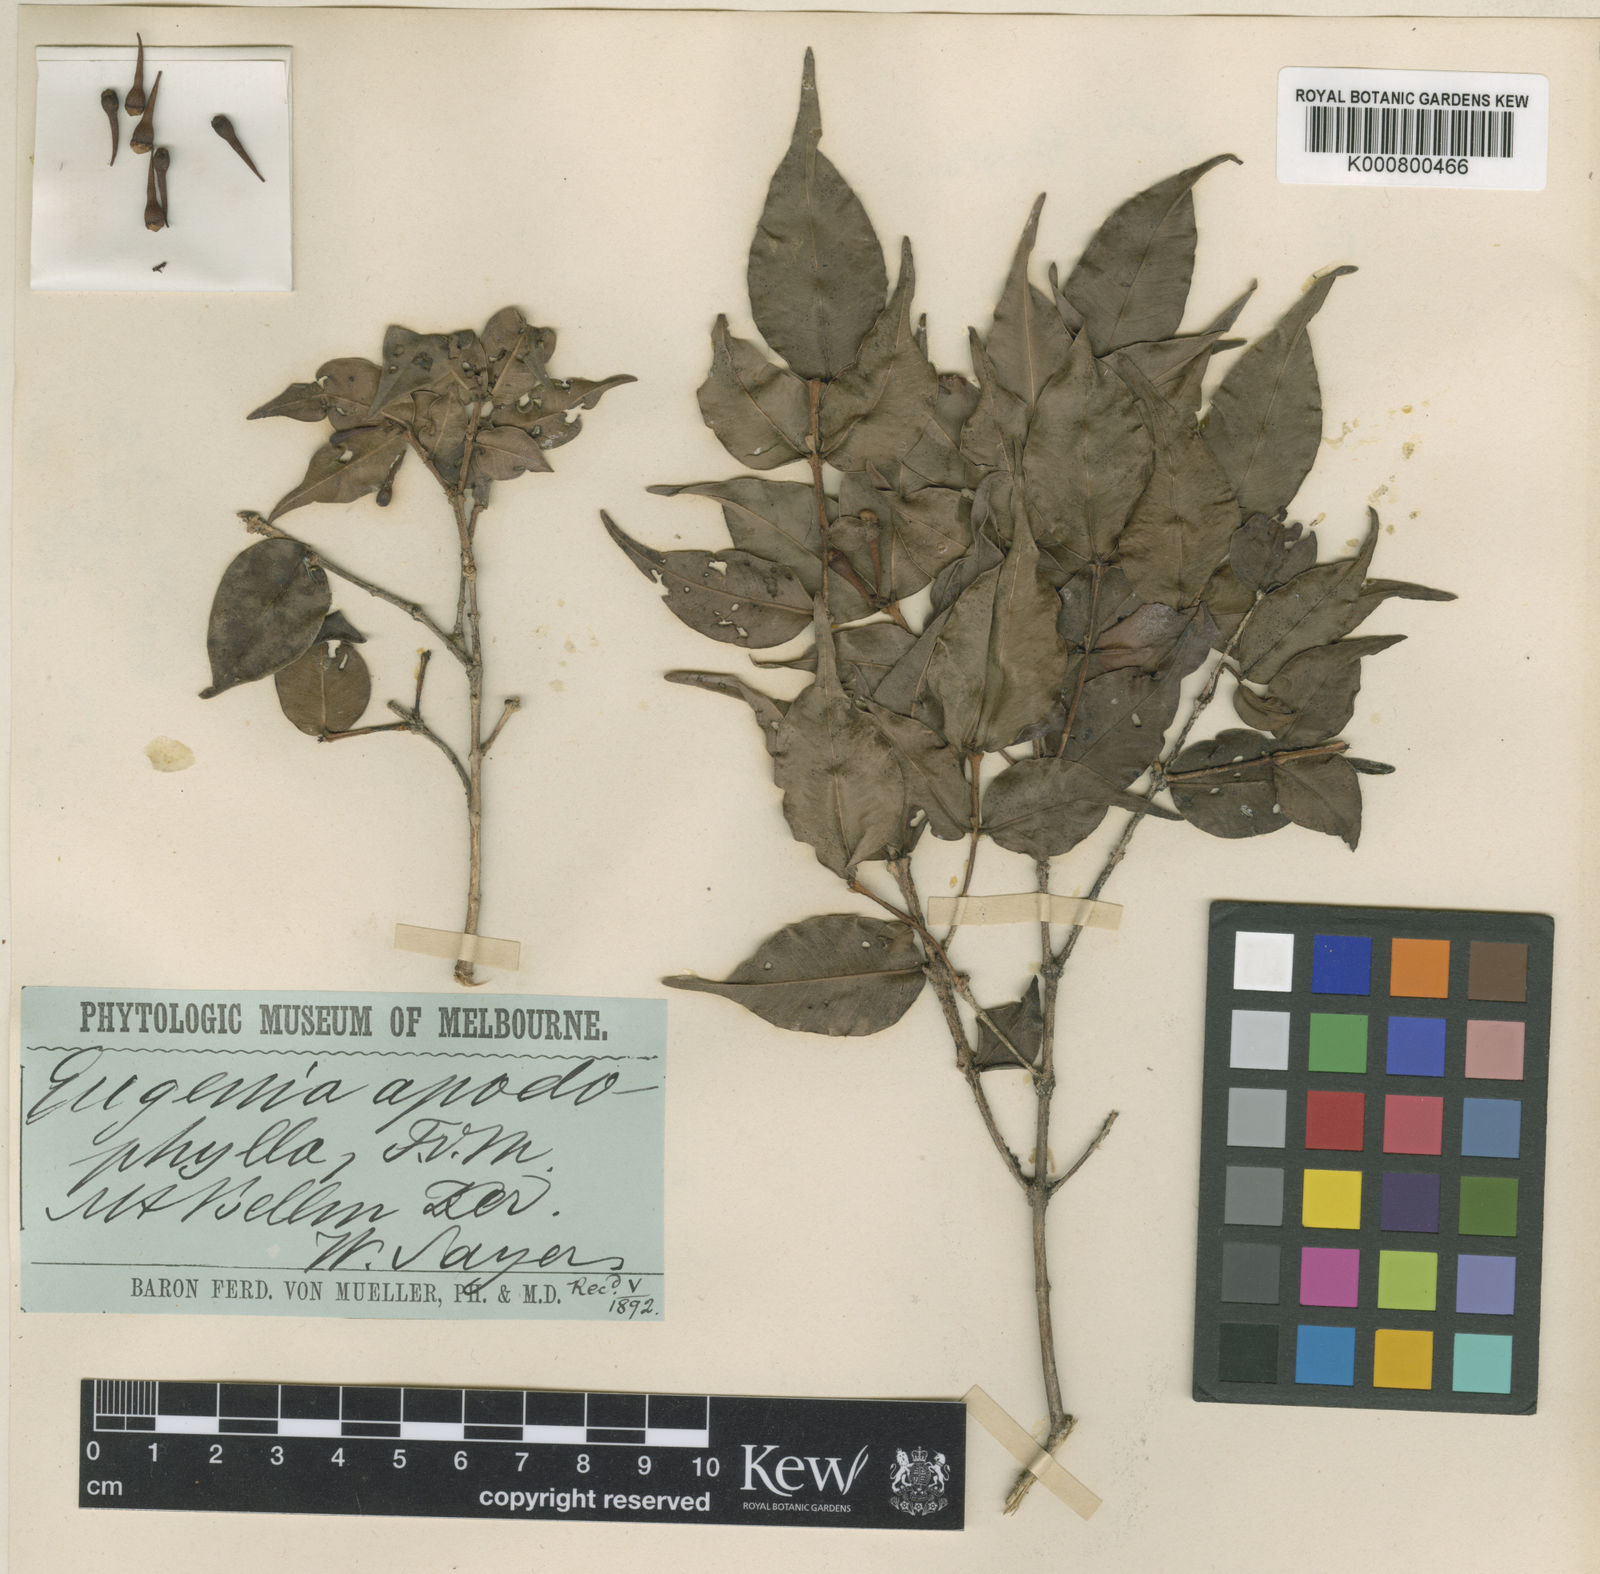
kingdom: Plantae
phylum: Tracheophyta
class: Magnoliopsida
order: Myrtales
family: Myrtaceae
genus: Syzygium
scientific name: Syzygium apodophyllum
